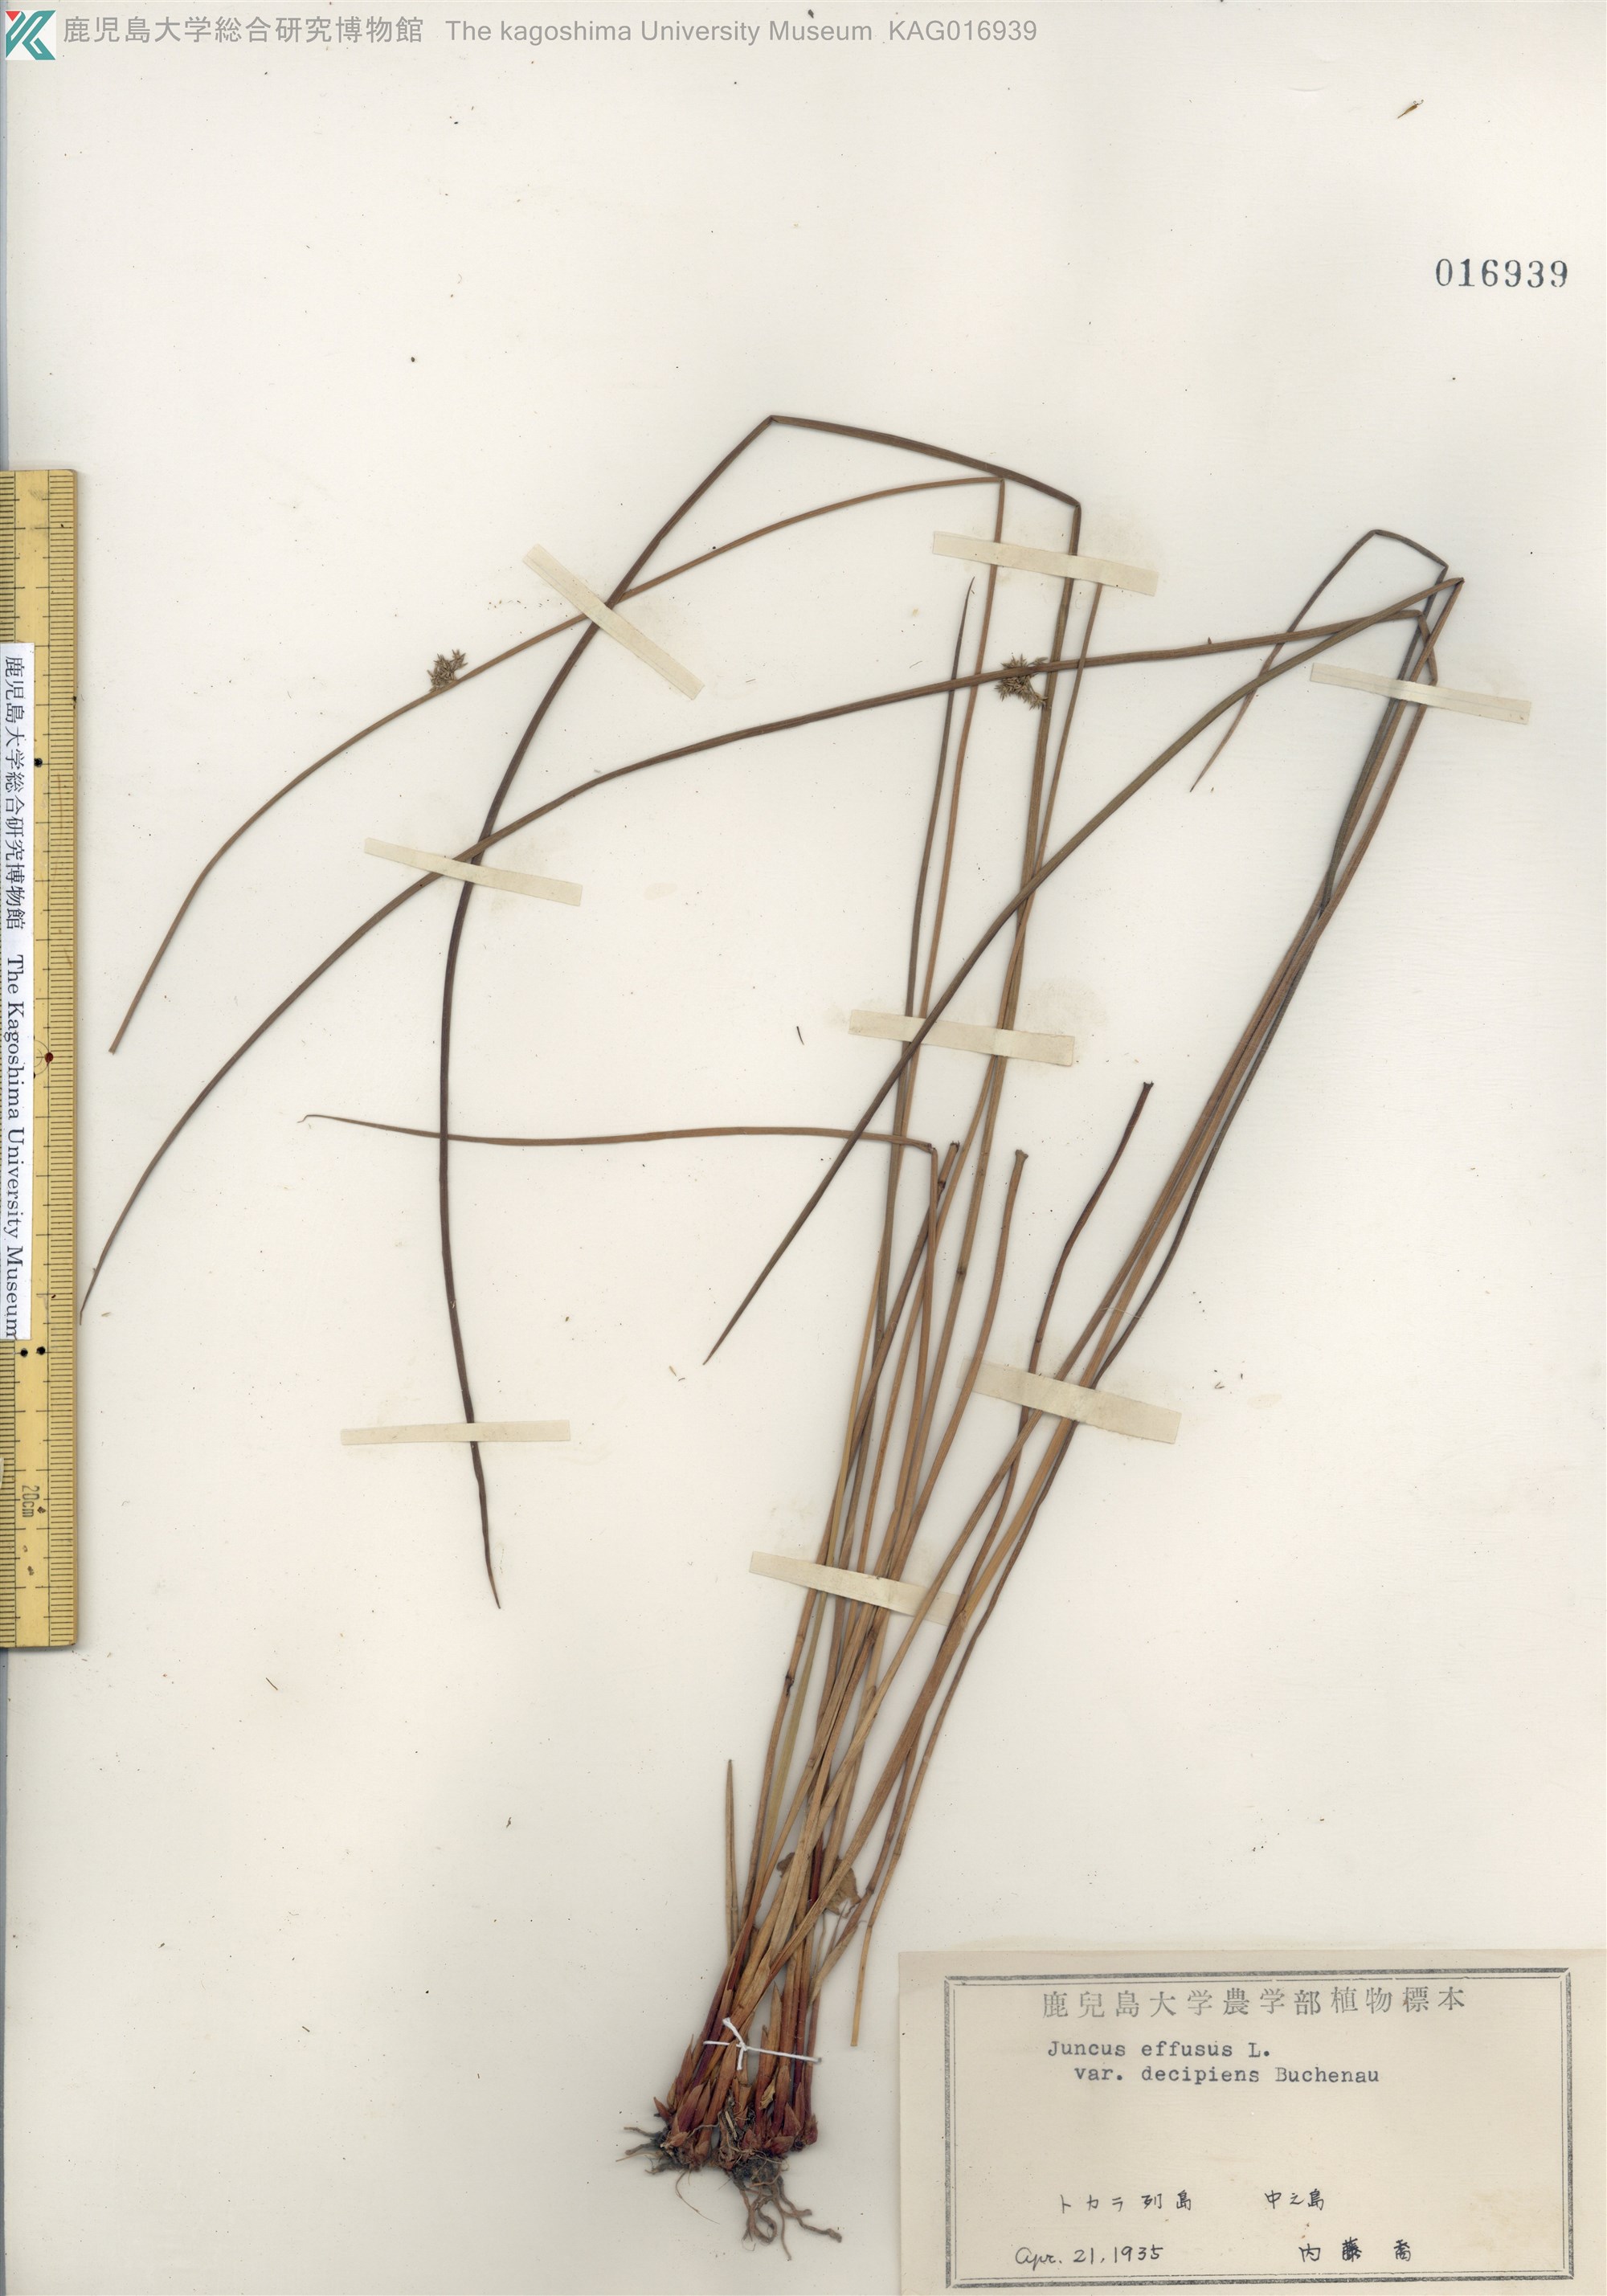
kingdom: Plantae
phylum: Tracheophyta
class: Liliopsida
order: Poales
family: Juncaceae
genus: Juncus
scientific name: Juncus decipiens
